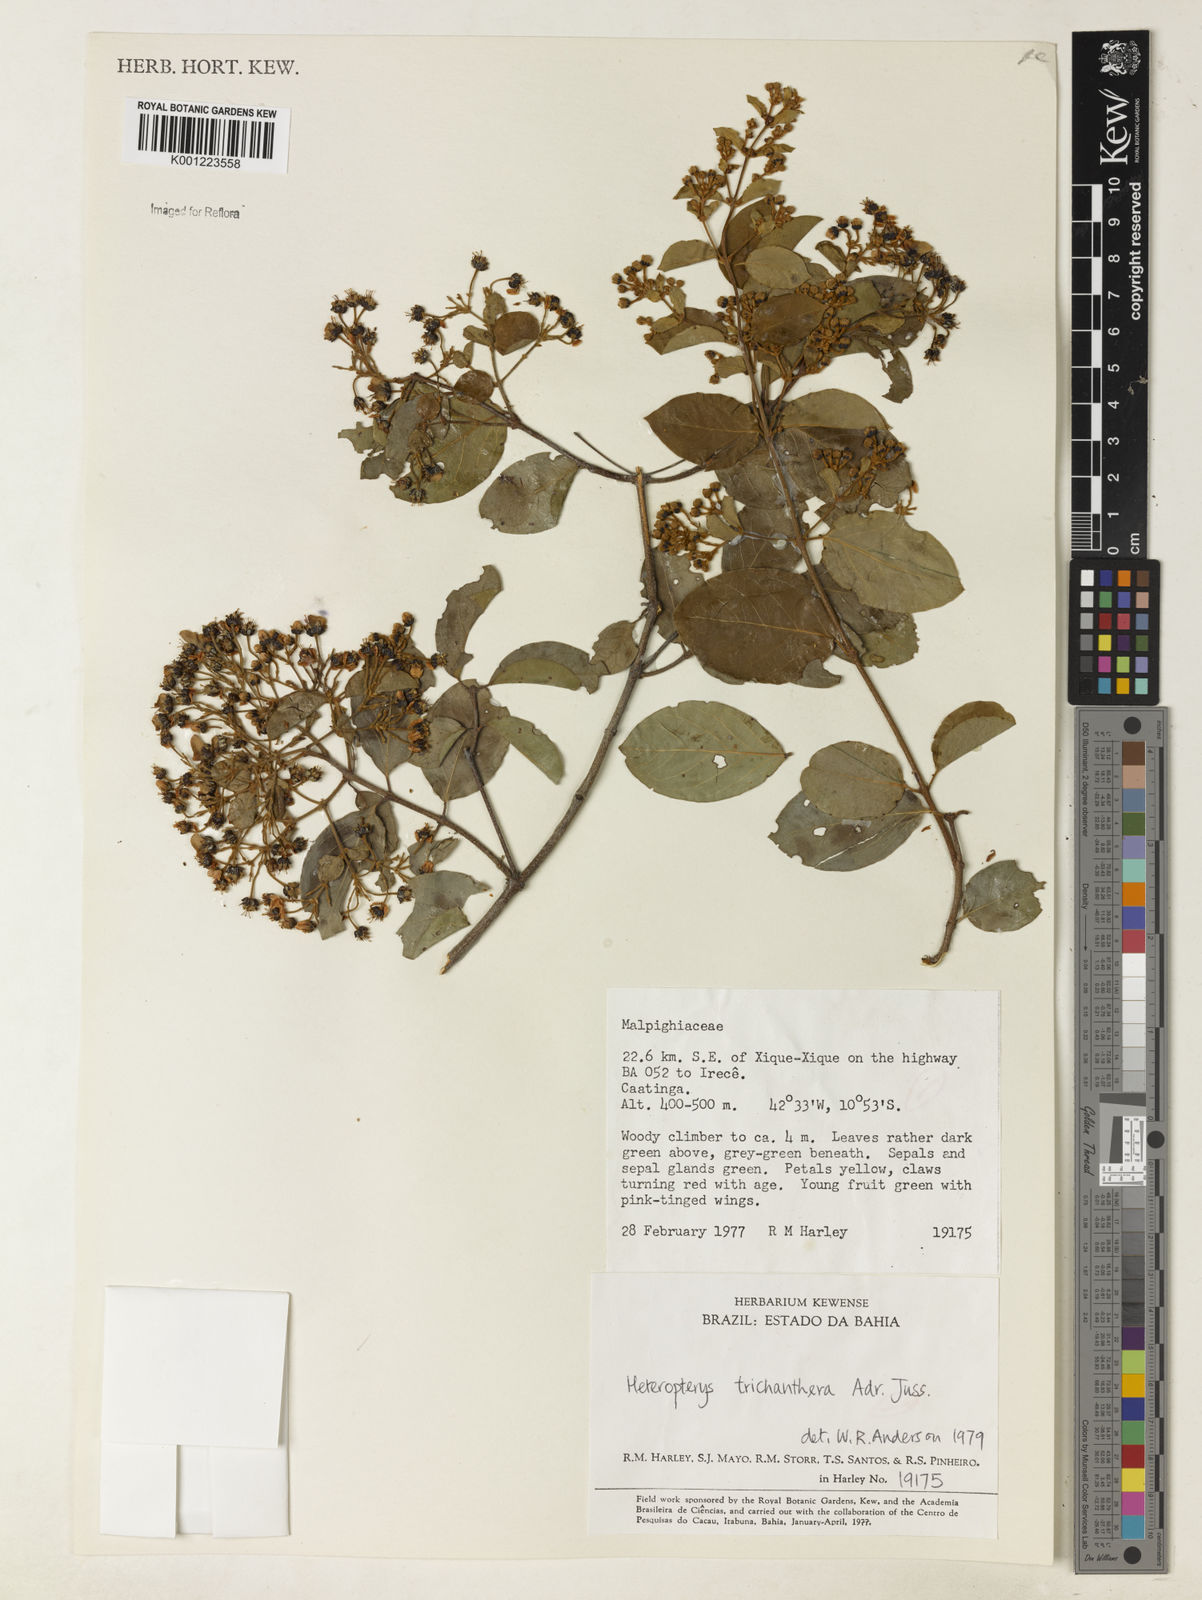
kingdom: Plantae
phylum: Tracheophyta
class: Magnoliopsida
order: Malpighiales
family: Malpighiaceae
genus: Heteropterys
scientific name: Heteropterys trichanthera
